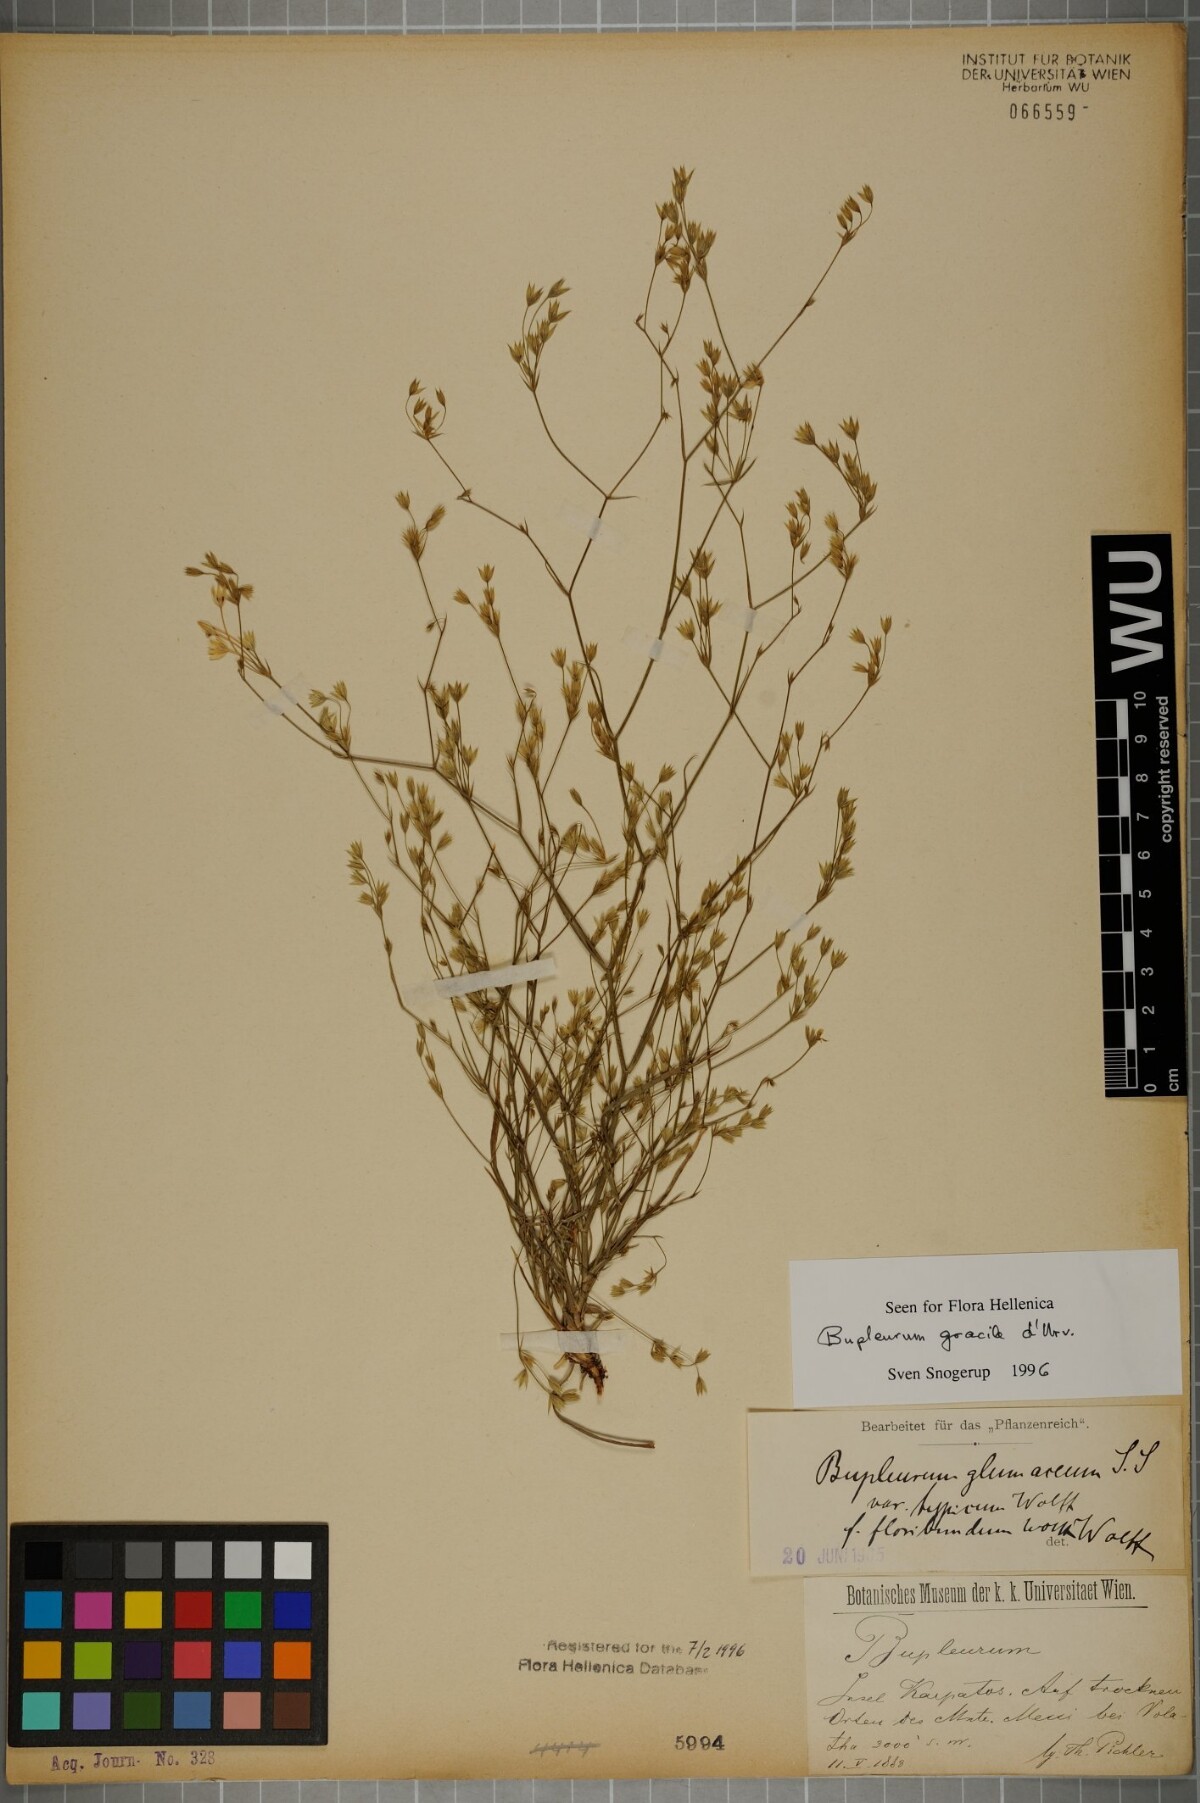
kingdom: Plantae
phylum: Tracheophyta
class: Magnoliopsida
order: Apiales
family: Apiaceae
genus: Bupleurum
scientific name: Bupleurum gracile
